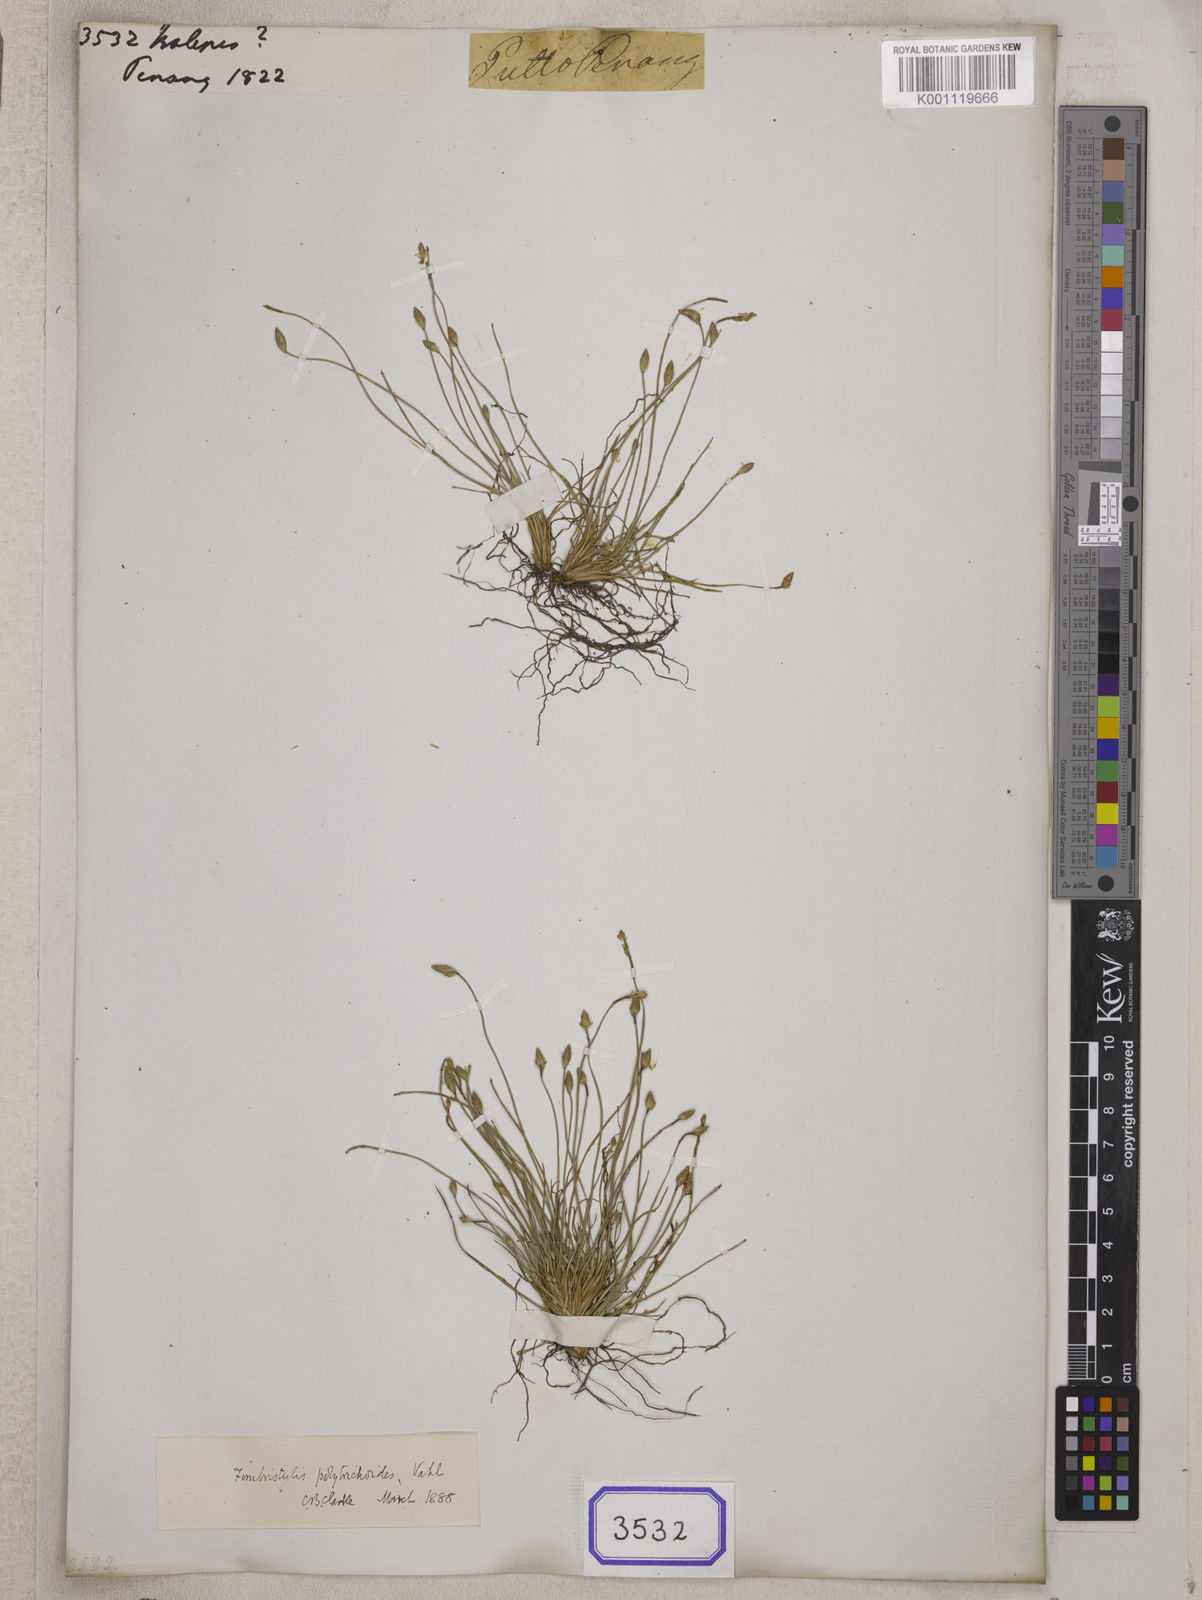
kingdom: Plantae
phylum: Tracheophyta
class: Liliopsida
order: Poales
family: Cyperaceae
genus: Isolepis
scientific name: Isolepis
